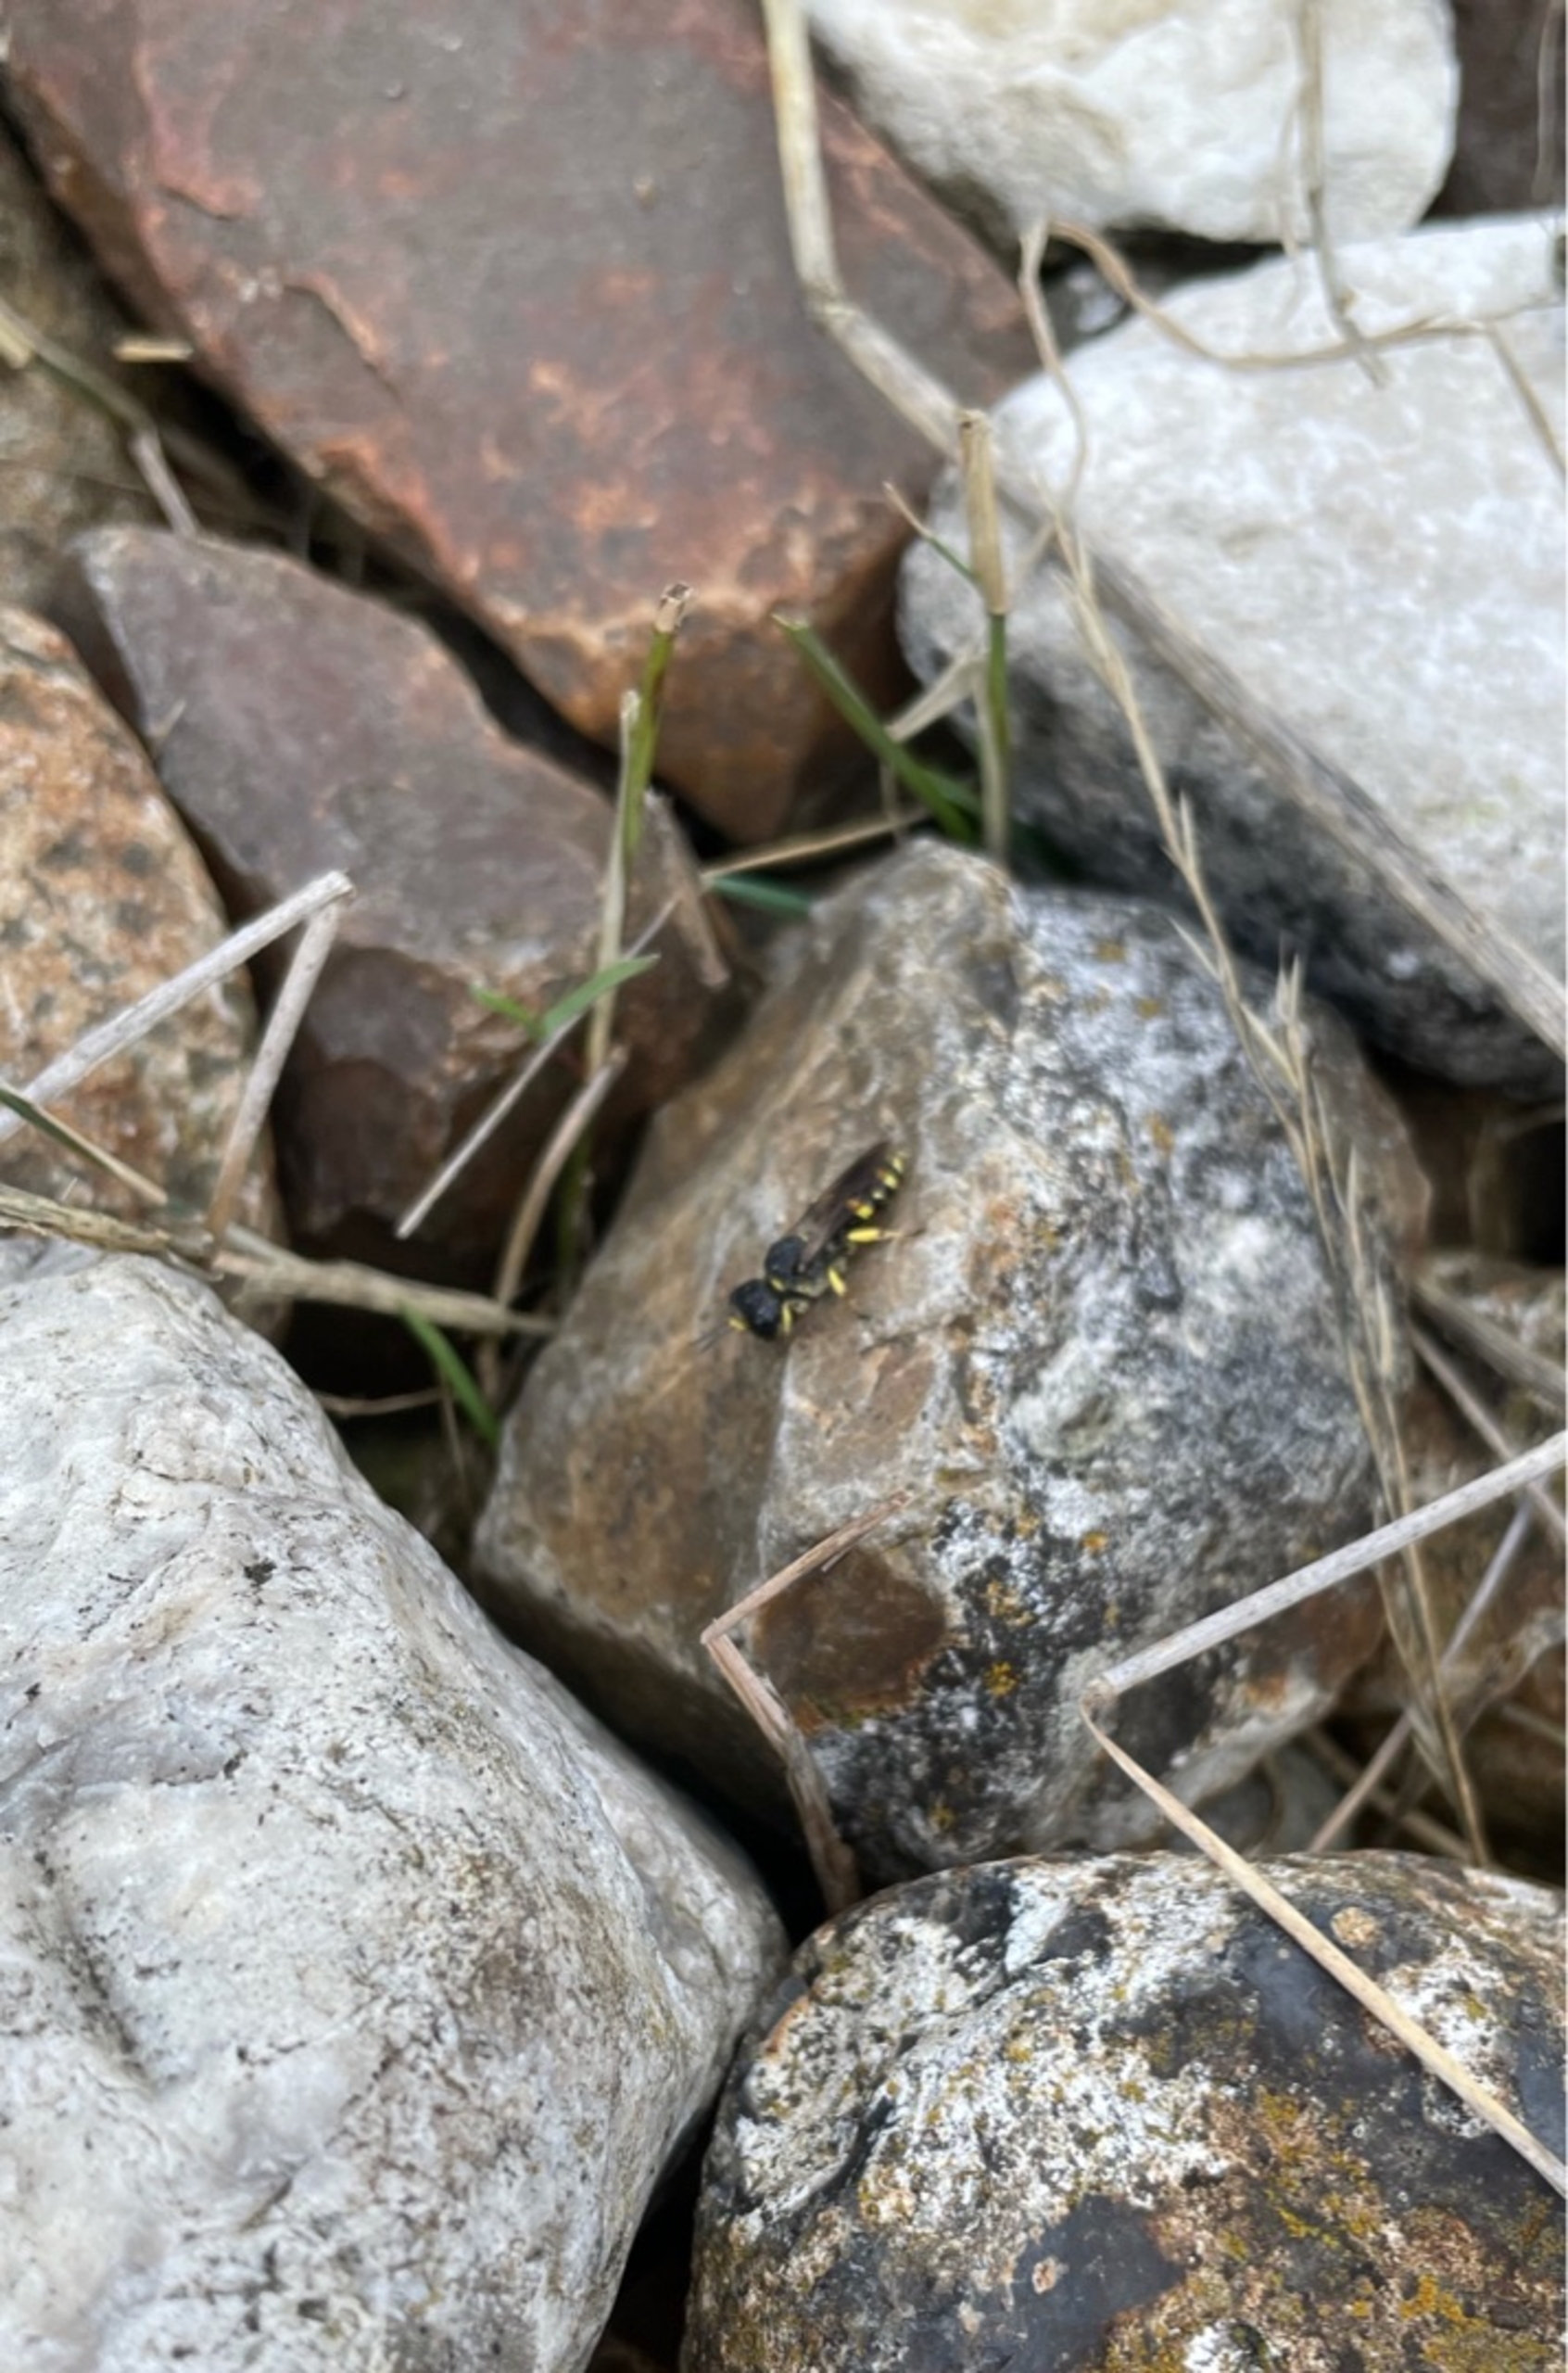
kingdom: Animalia
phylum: Arthropoda
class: Insecta
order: Hymenoptera
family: Crabronidae
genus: Ectemnius
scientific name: Ectemnius
